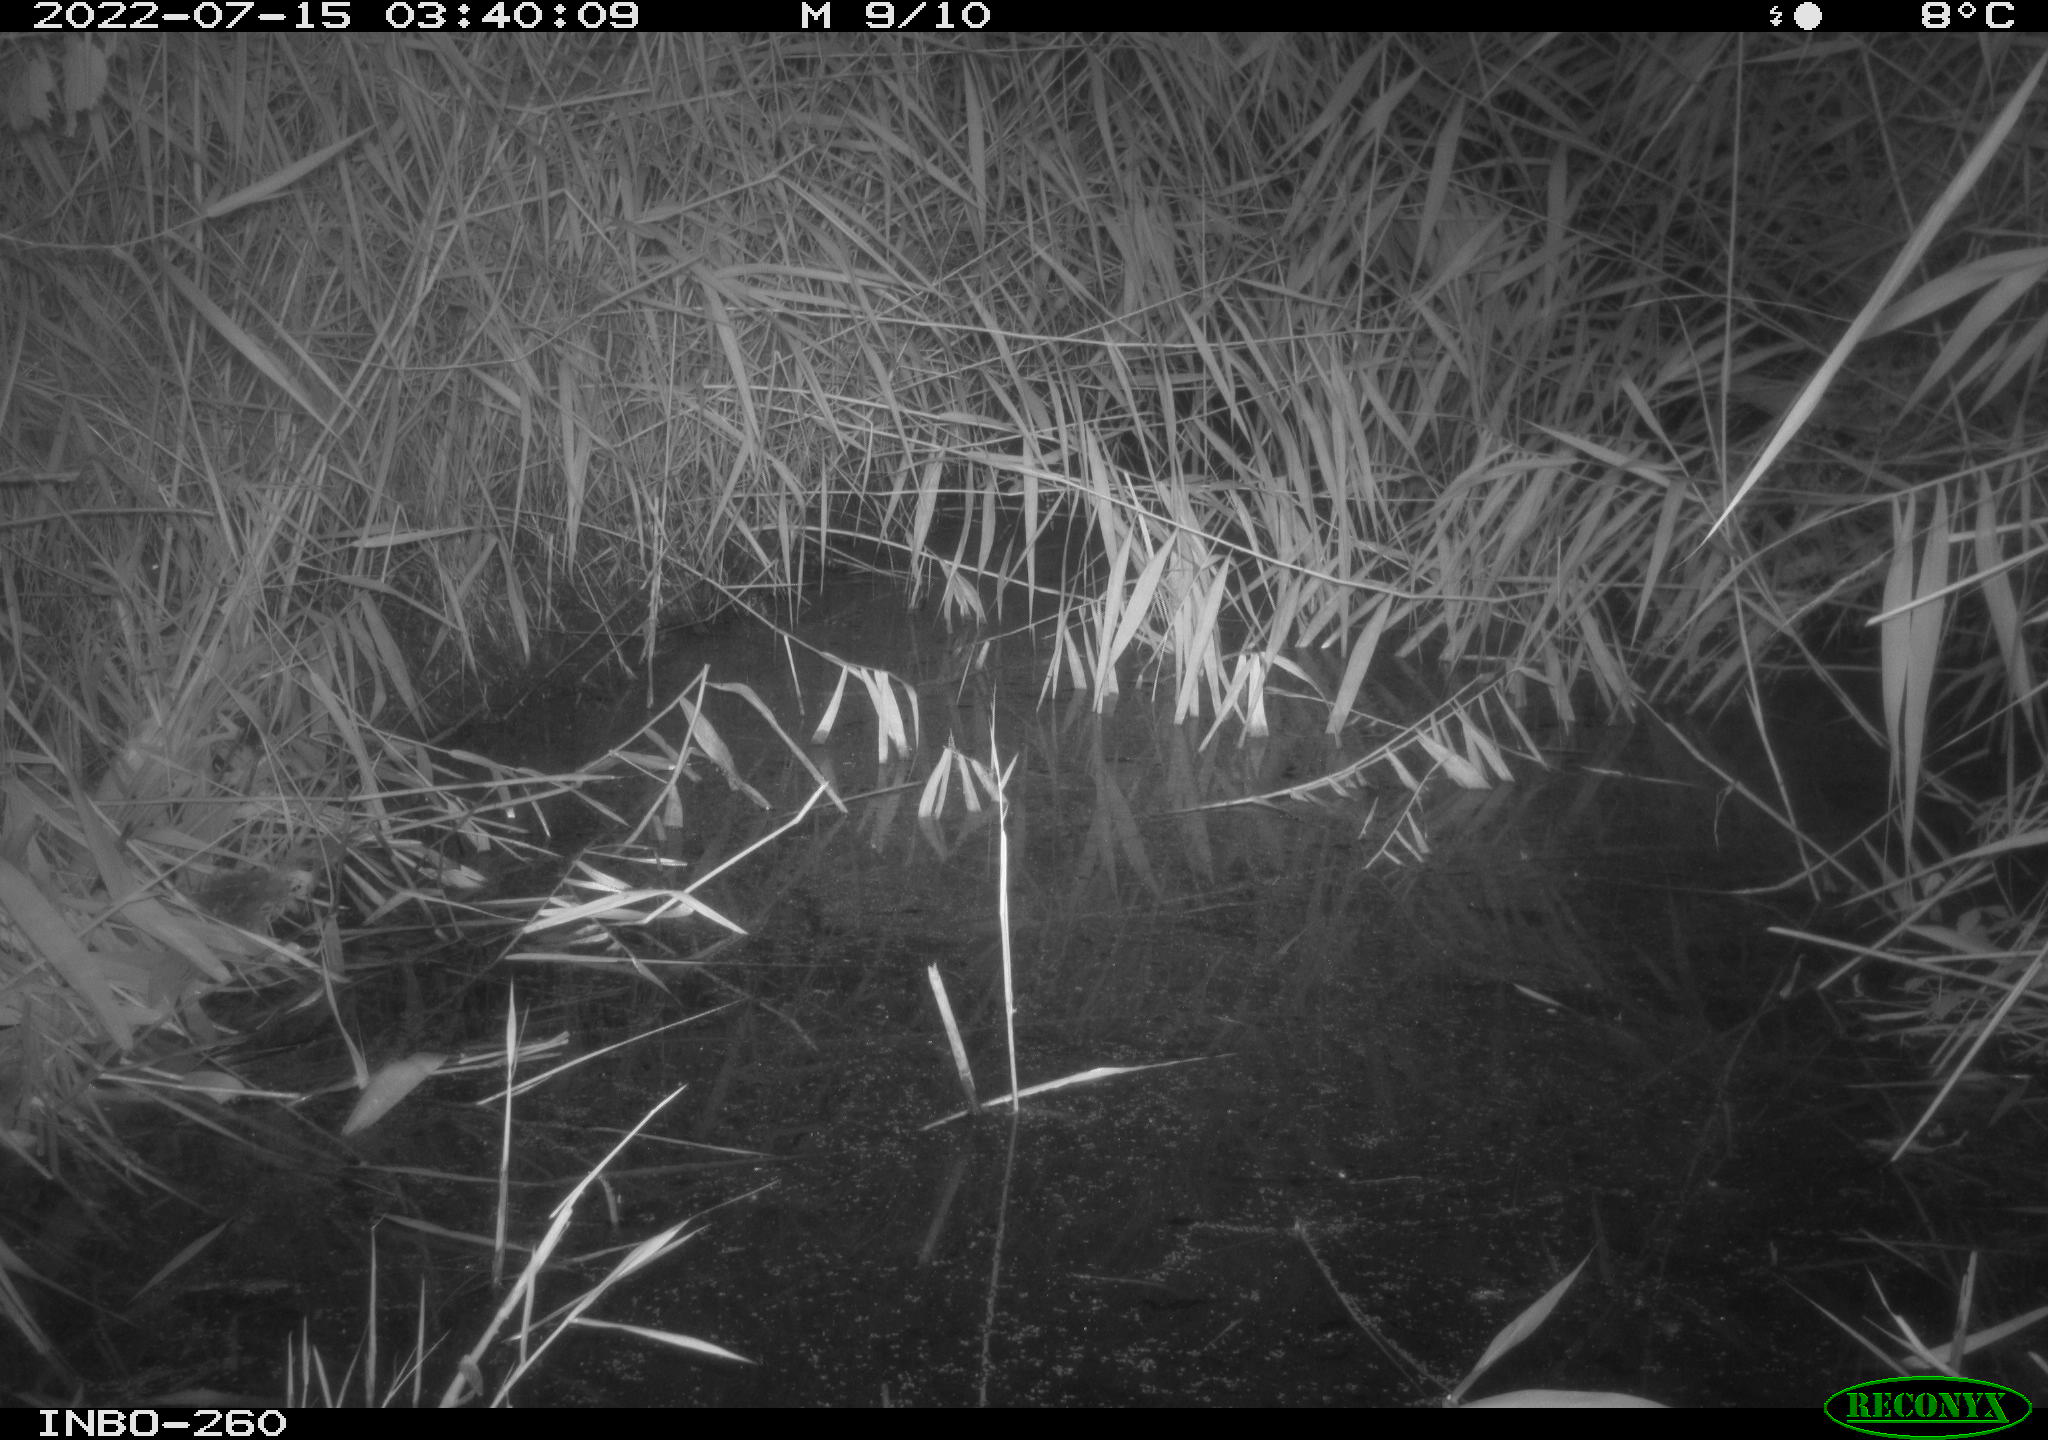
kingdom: Animalia
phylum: Chordata
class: Mammalia
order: Rodentia
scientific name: Rodentia
